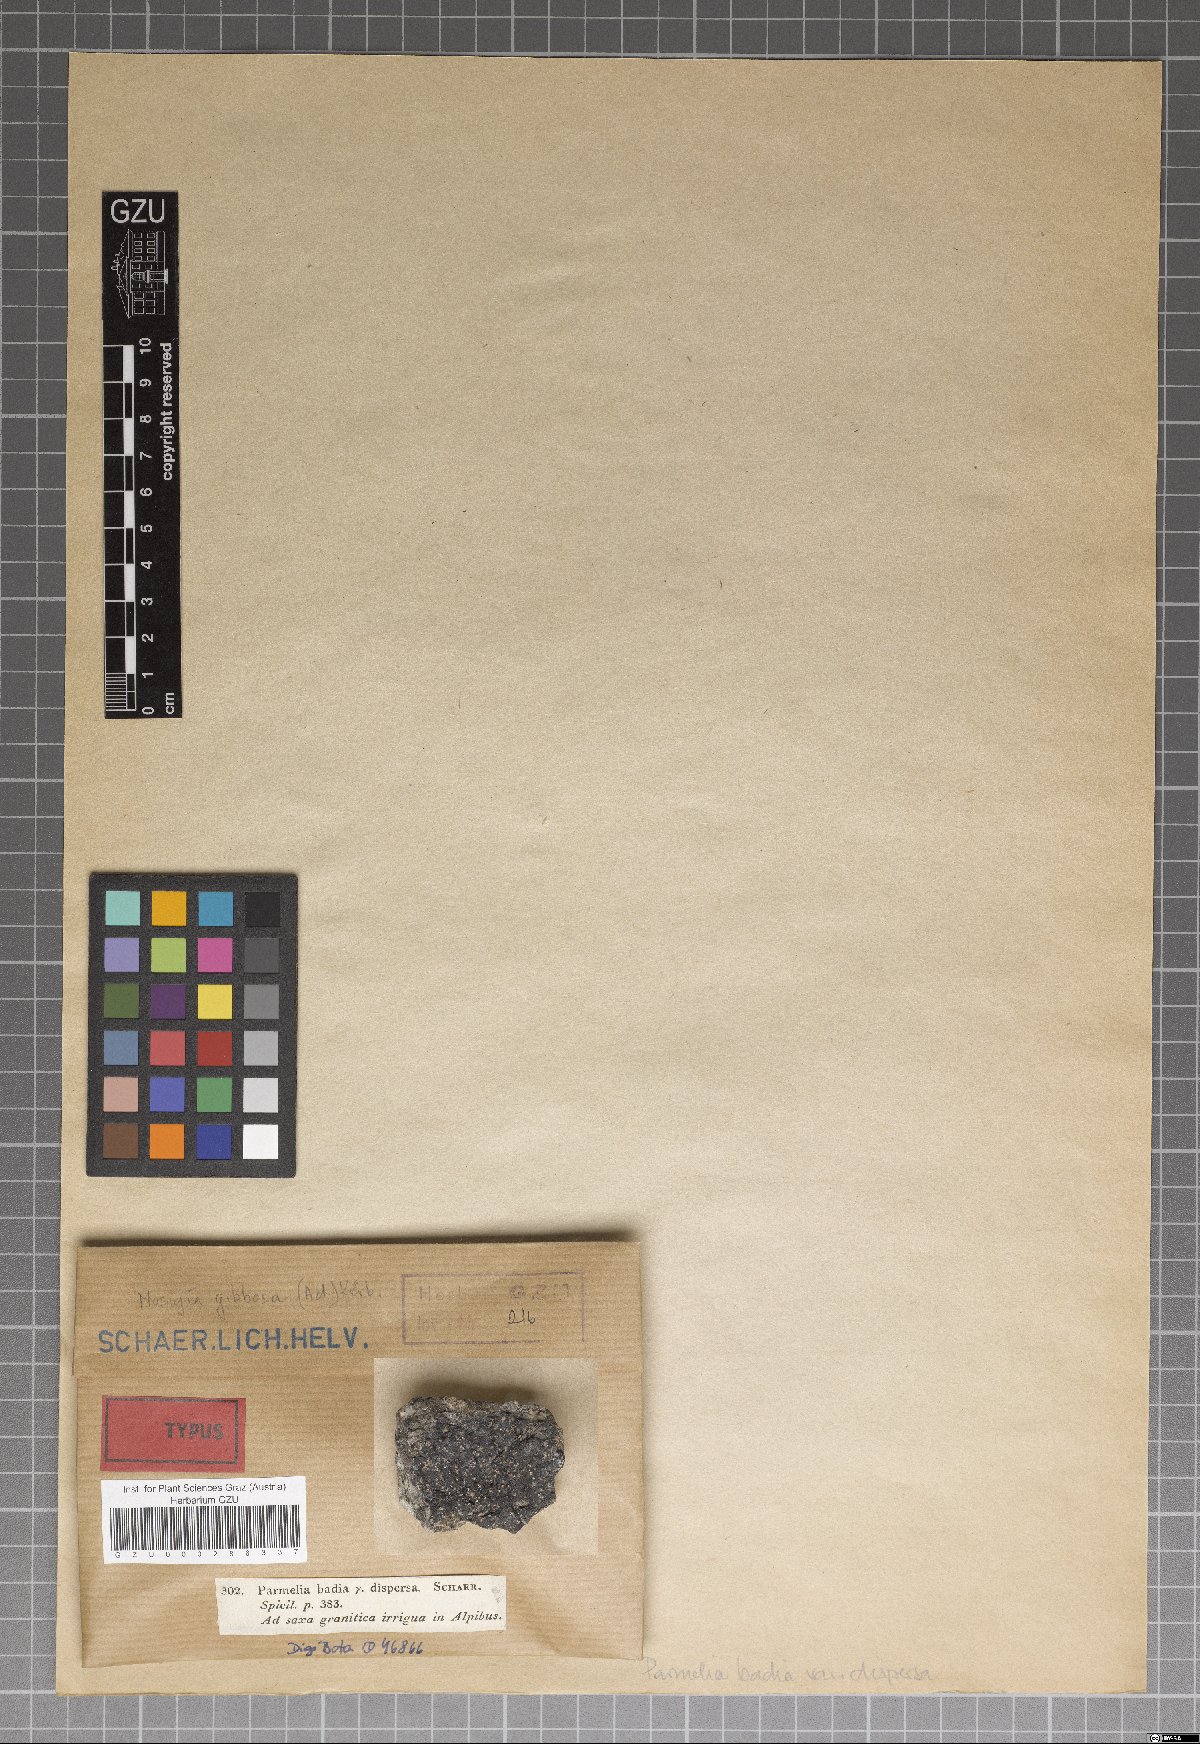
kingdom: Fungi
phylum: Ascomycota
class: Lecanoromycetes
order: Lecanorales
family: Parmeliaceae
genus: Parmelinella
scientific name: Parmelinella
